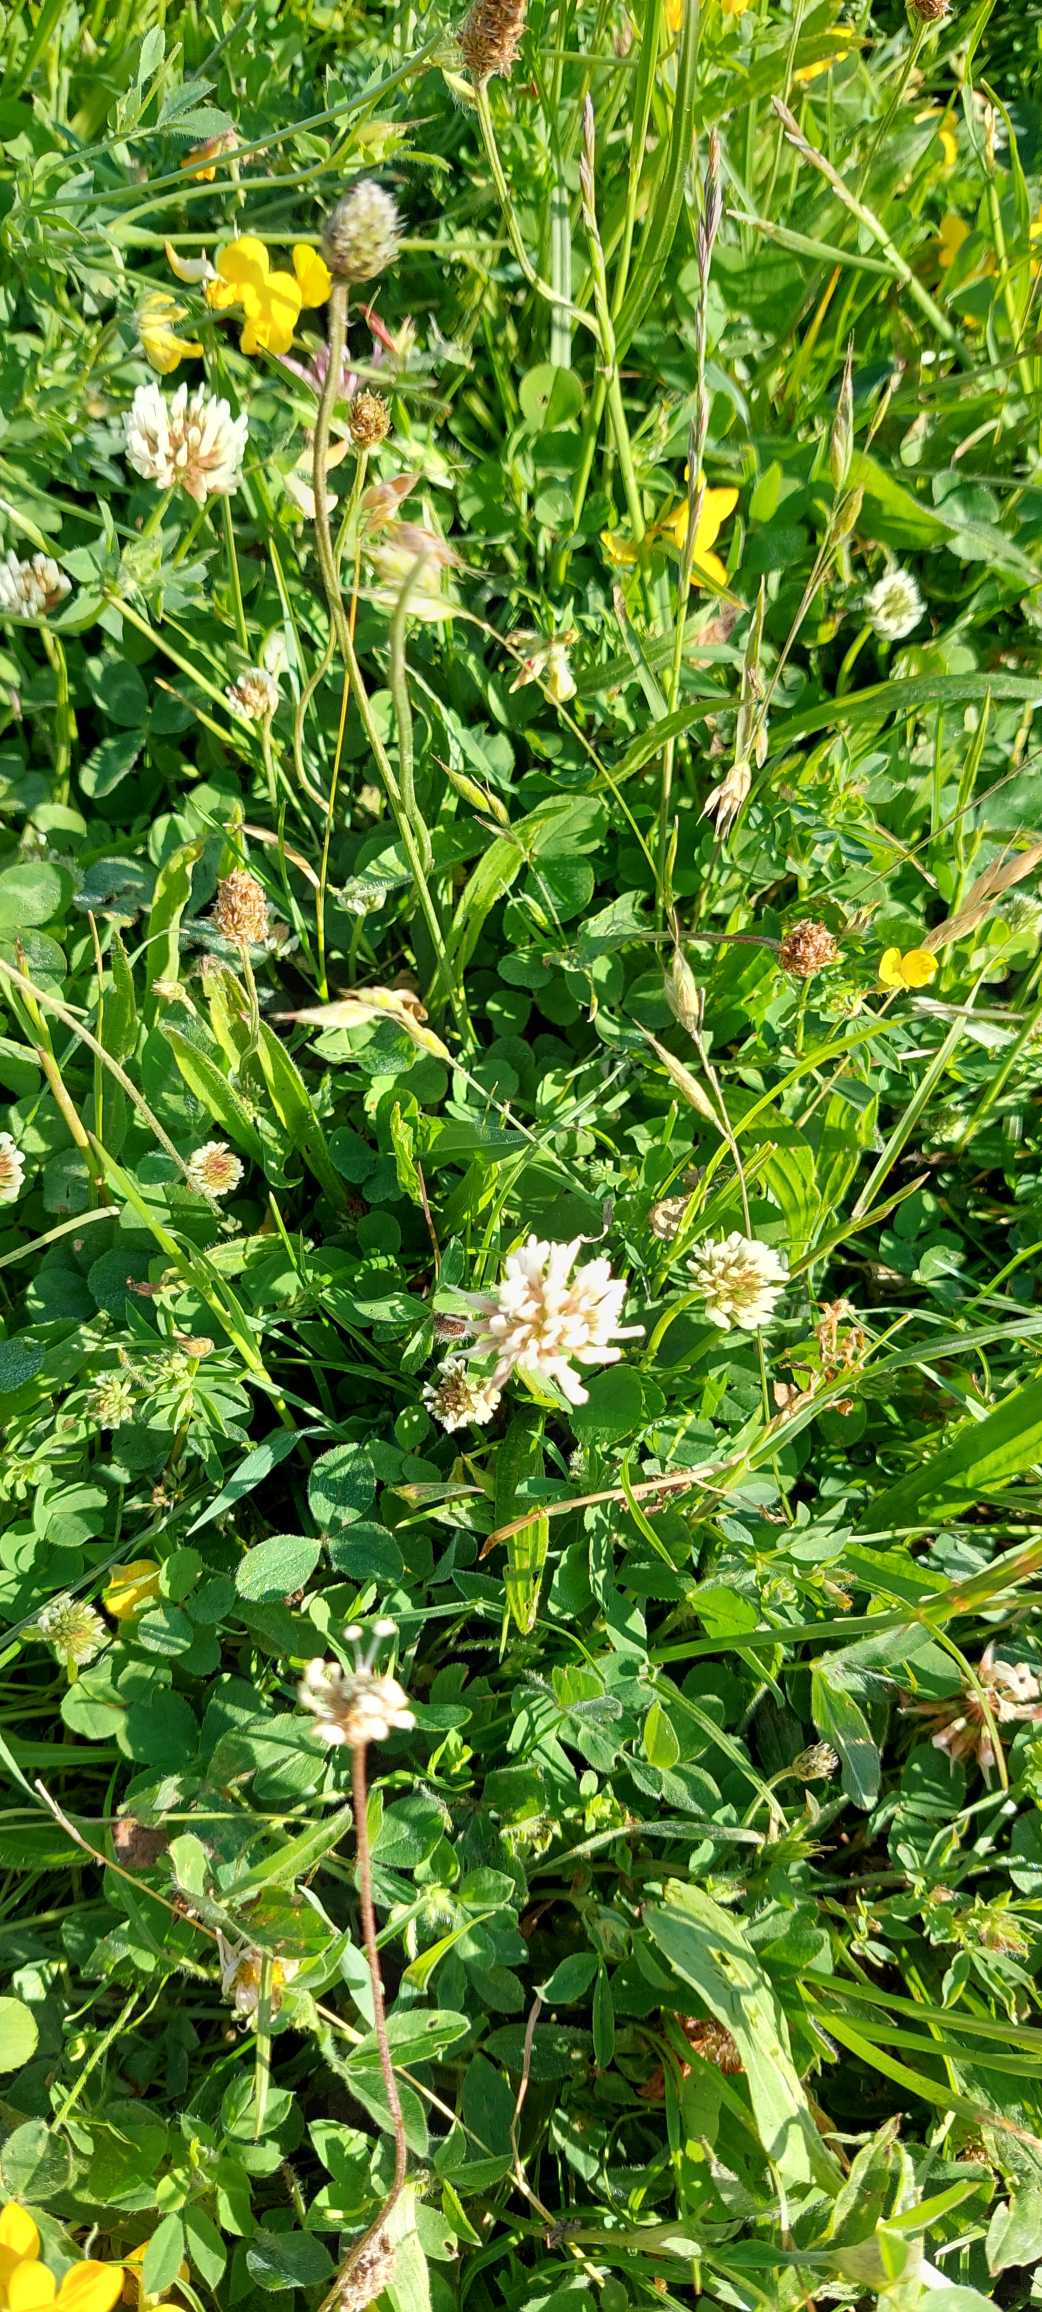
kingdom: Plantae
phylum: Tracheophyta
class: Magnoliopsida
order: Fabales
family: Fabaceae
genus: Trifolium
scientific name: Trifolium repens
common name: Hvid-kløver
